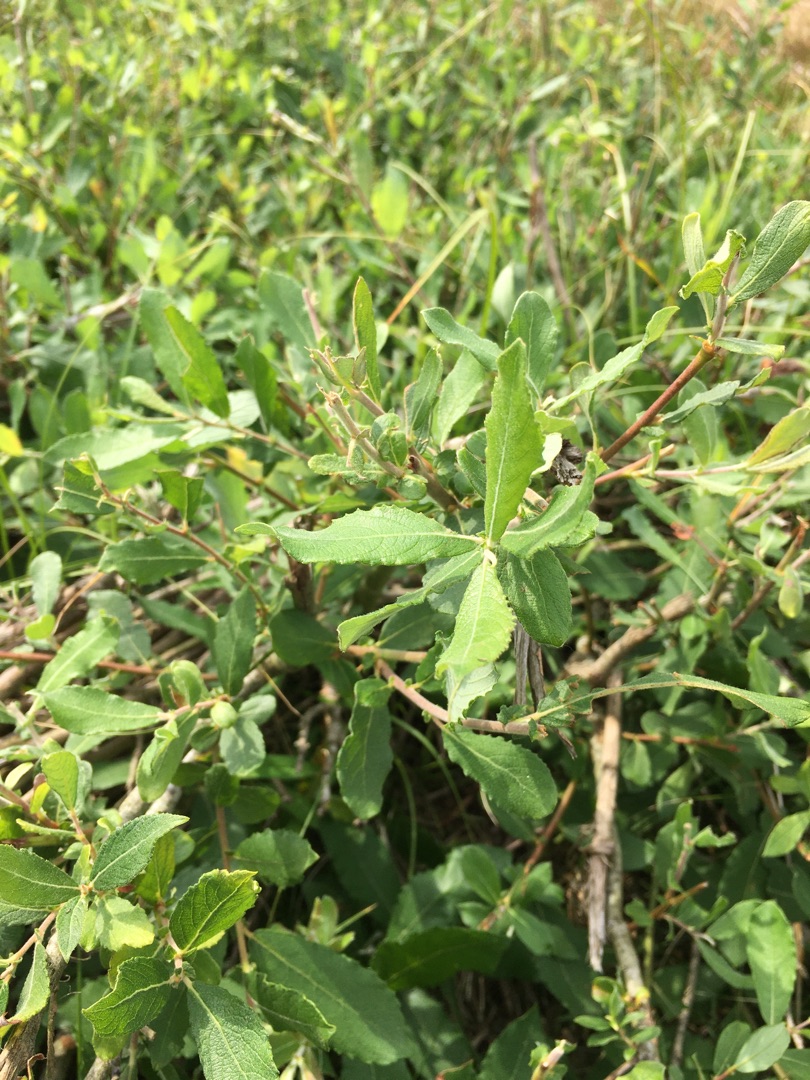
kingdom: Plantae
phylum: Tracheophyta
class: Magnoliopsida
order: Malpighiales
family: Salicaceae
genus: Salix
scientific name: Salix cinerea
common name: Grå-pil
